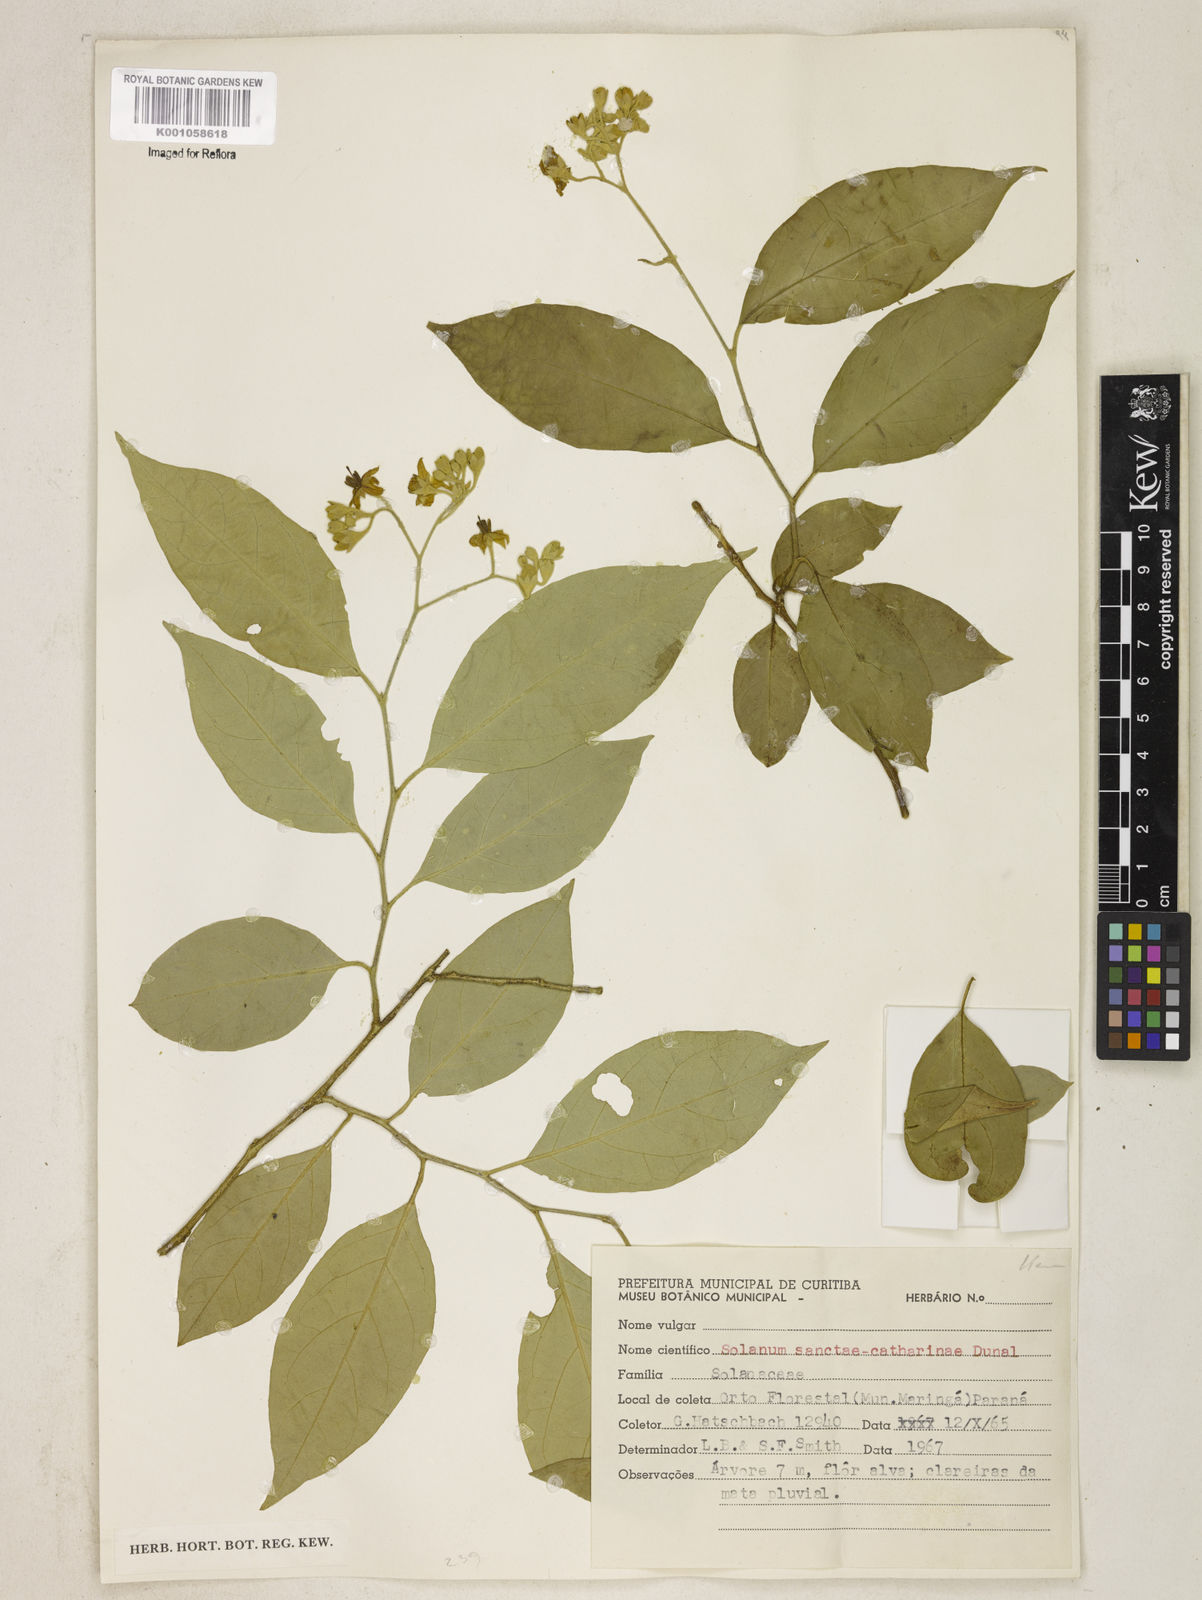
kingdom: Plantae
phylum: Tracheophyta
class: Magnoliopsida
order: Solanales
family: Solanaceae
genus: Solanum
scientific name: Solanum sanctae-catharinae
